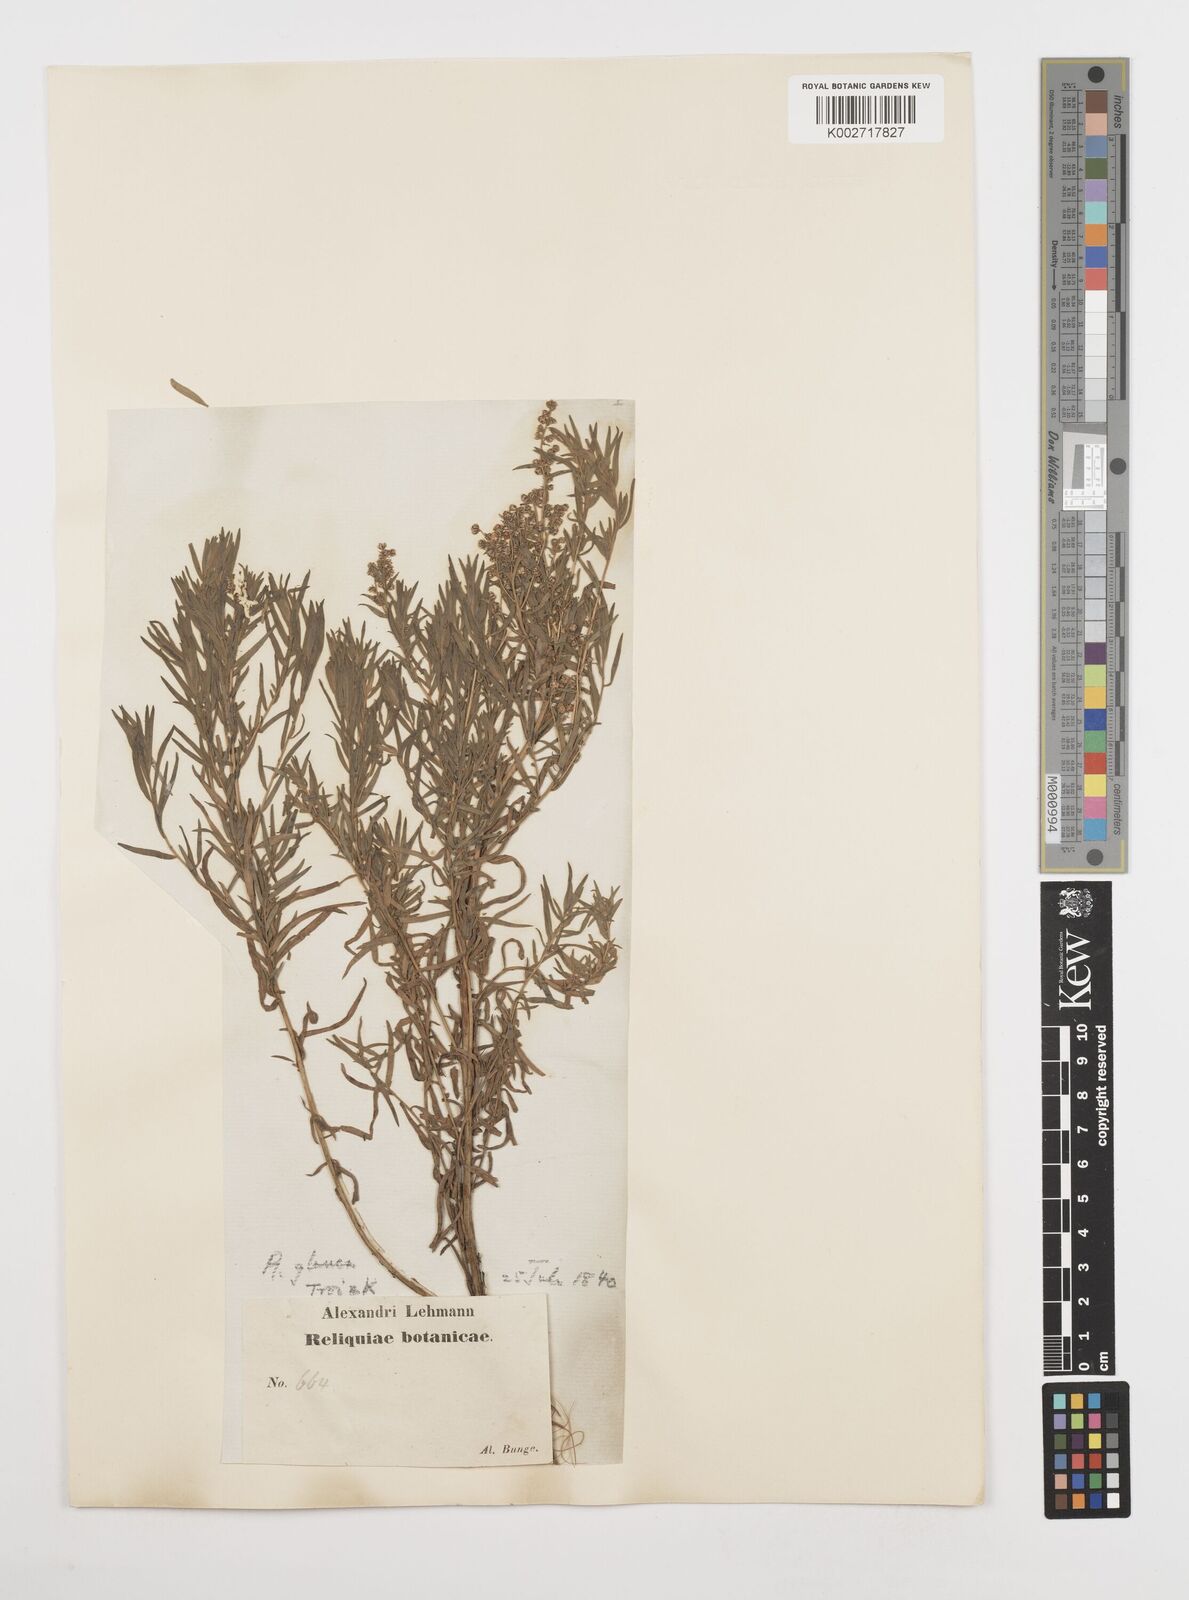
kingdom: Plantae
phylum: Tracheophyta
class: Magnoliopsida
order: Asterales
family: Asteraceae
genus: Artemisia
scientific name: Artemisia glauca
